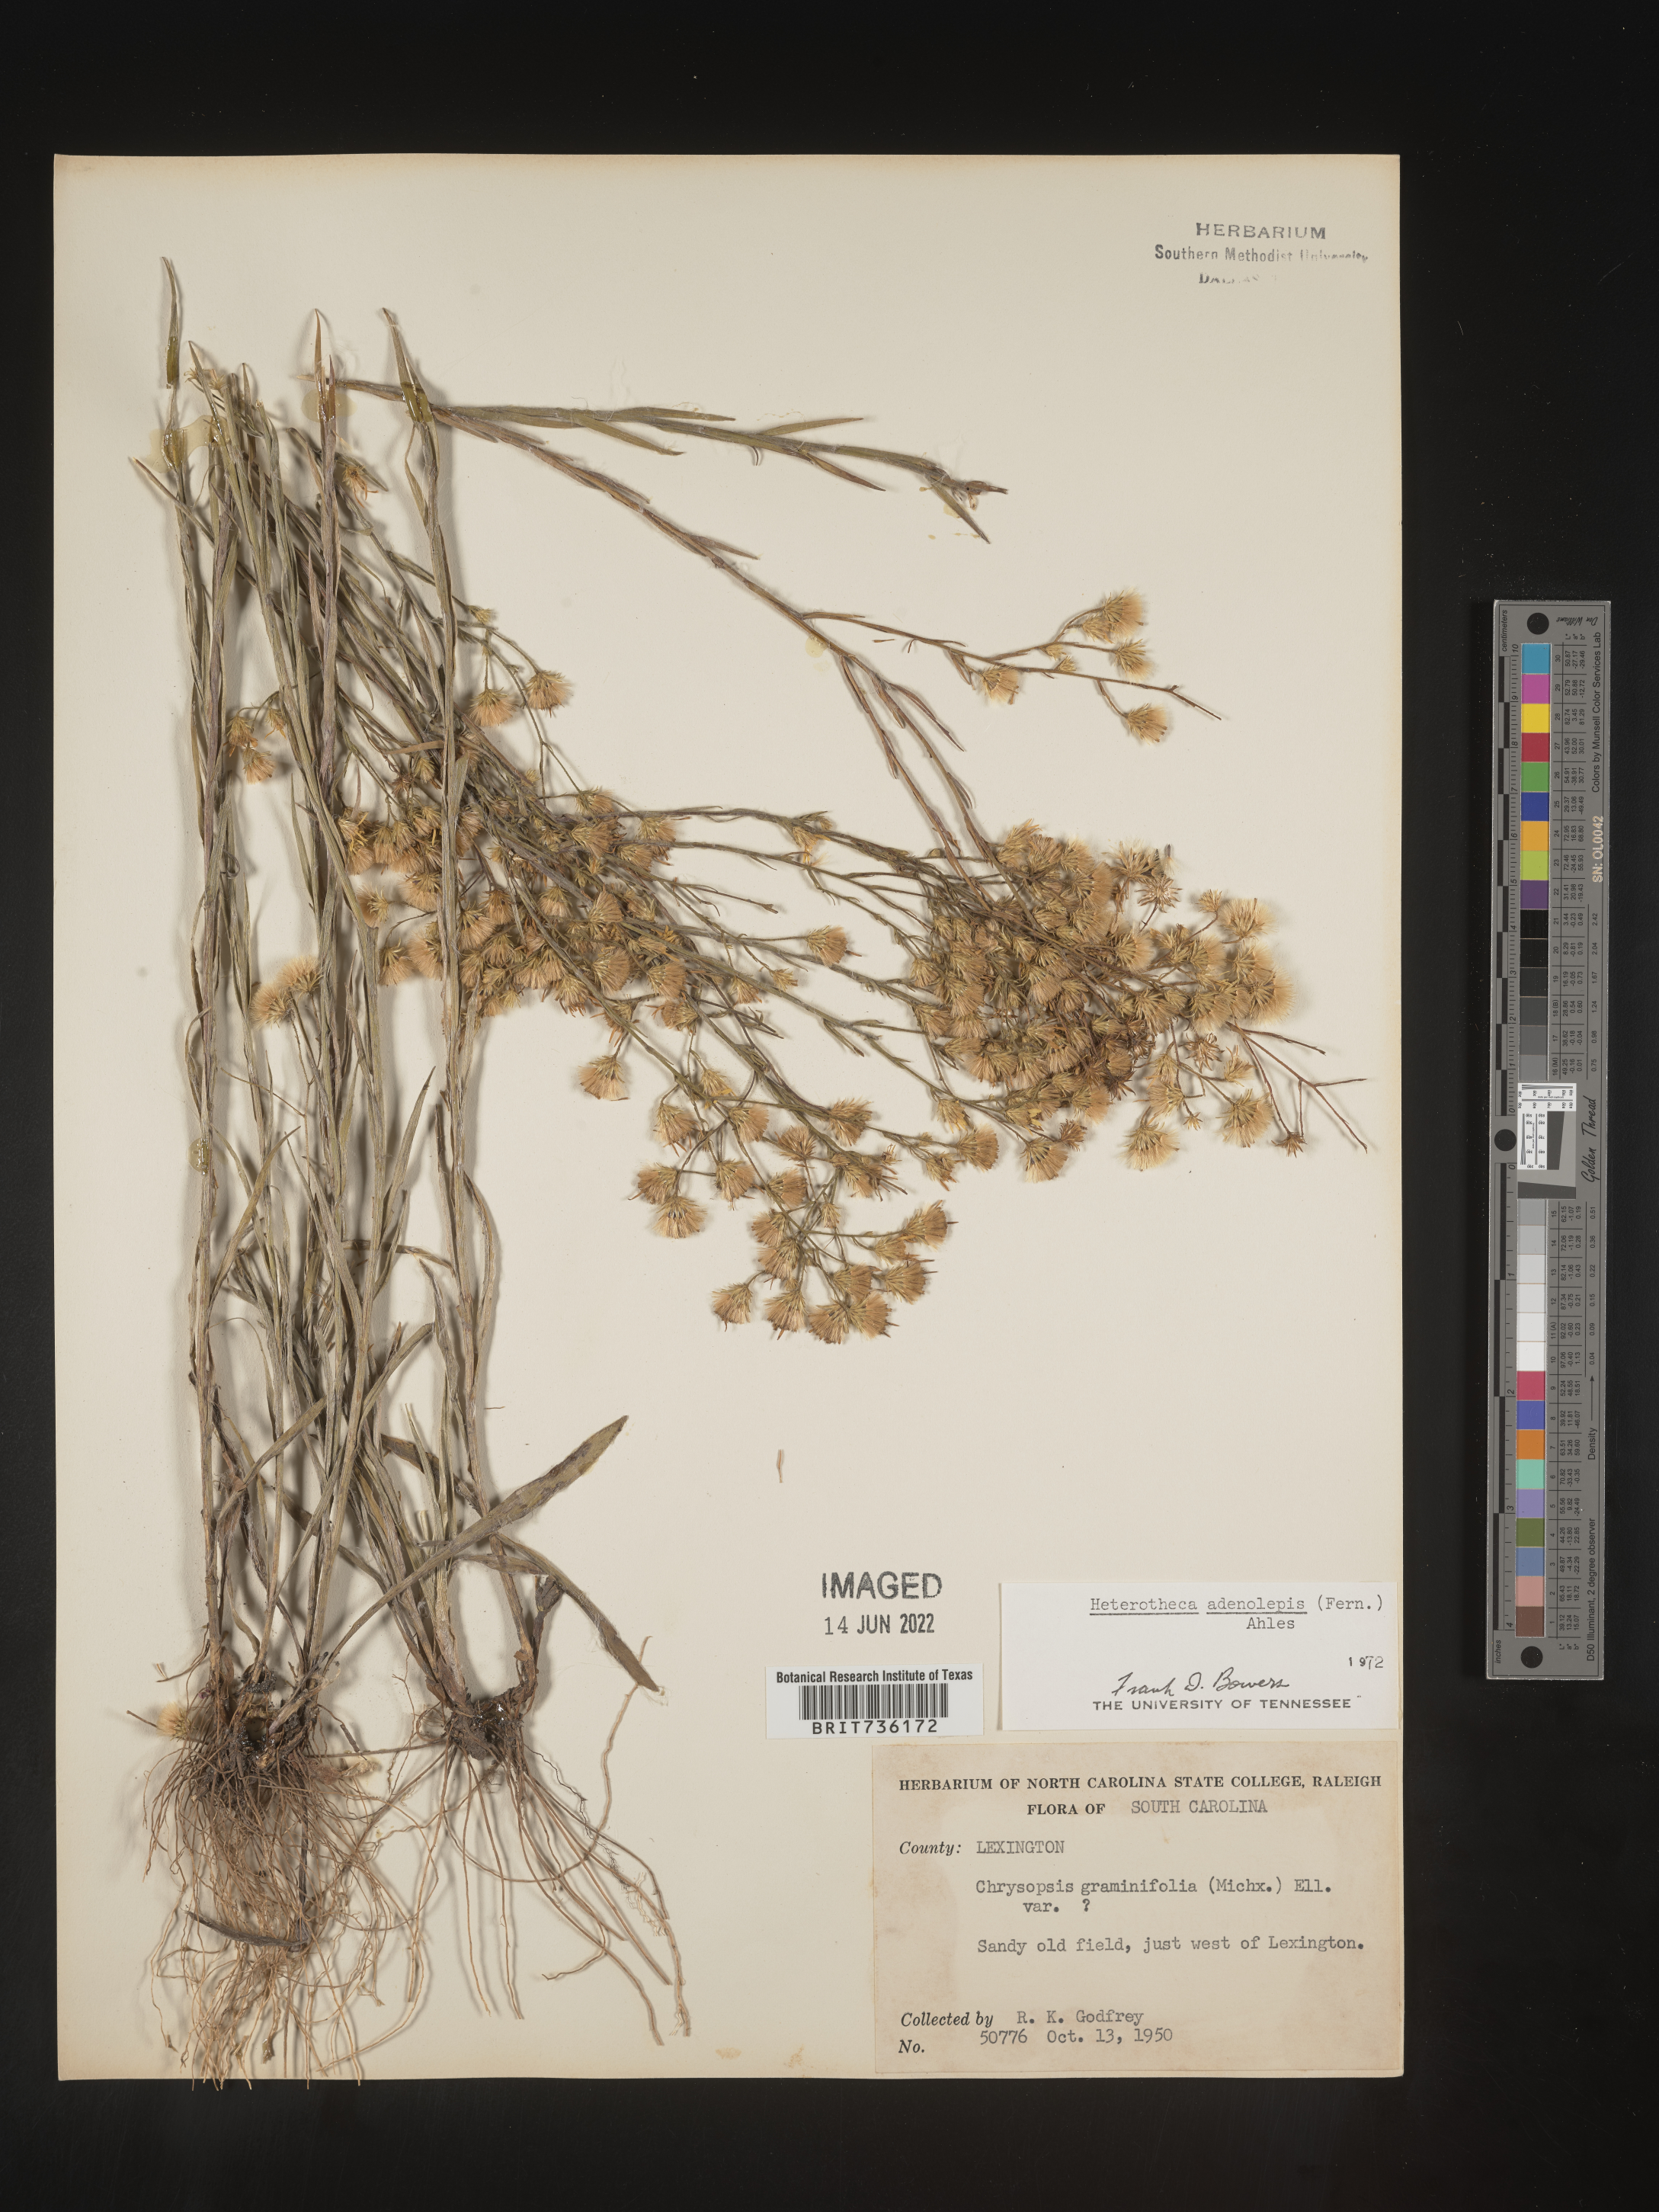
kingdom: Plantae
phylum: Tracheophyta
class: Magnoliopsida
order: Asterales
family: Asteraceae
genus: Pityopsis
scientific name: Pityopsis aspera
